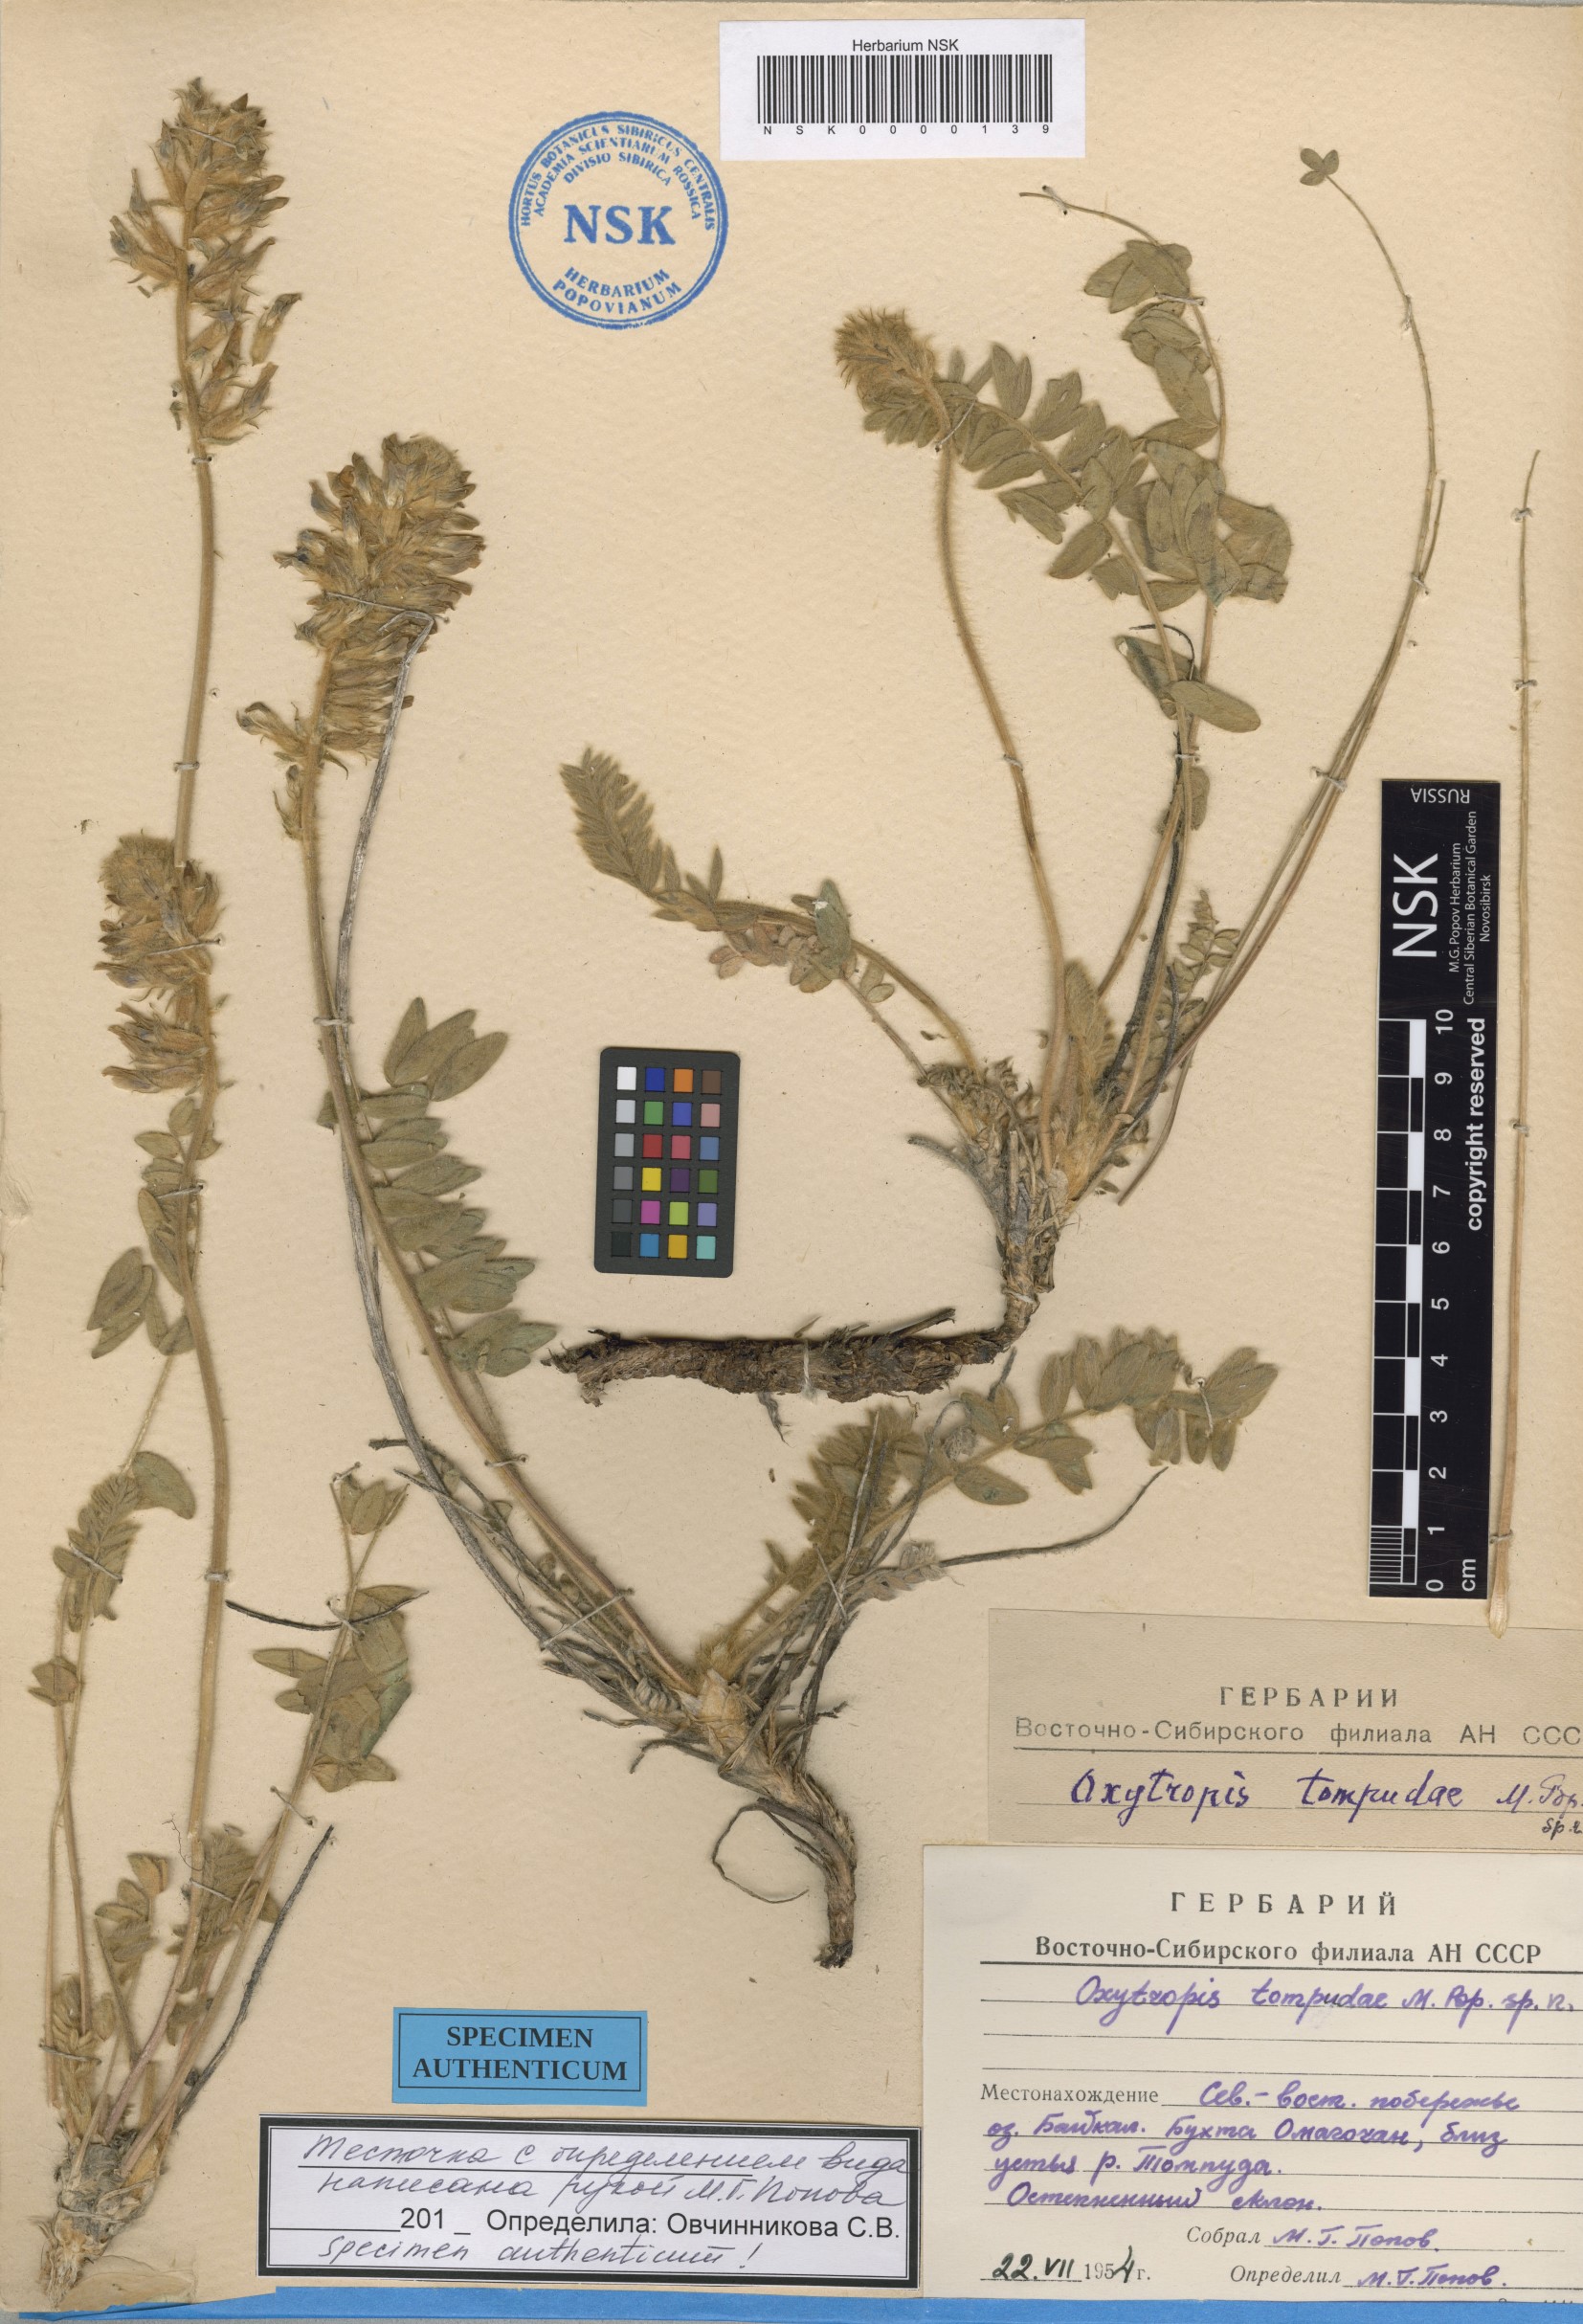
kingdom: Plantae
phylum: Tracheophyta
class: Magnoliopsida
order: Fabales
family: Fabaceae
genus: Oxytropis
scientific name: Oxytropis tompudae
